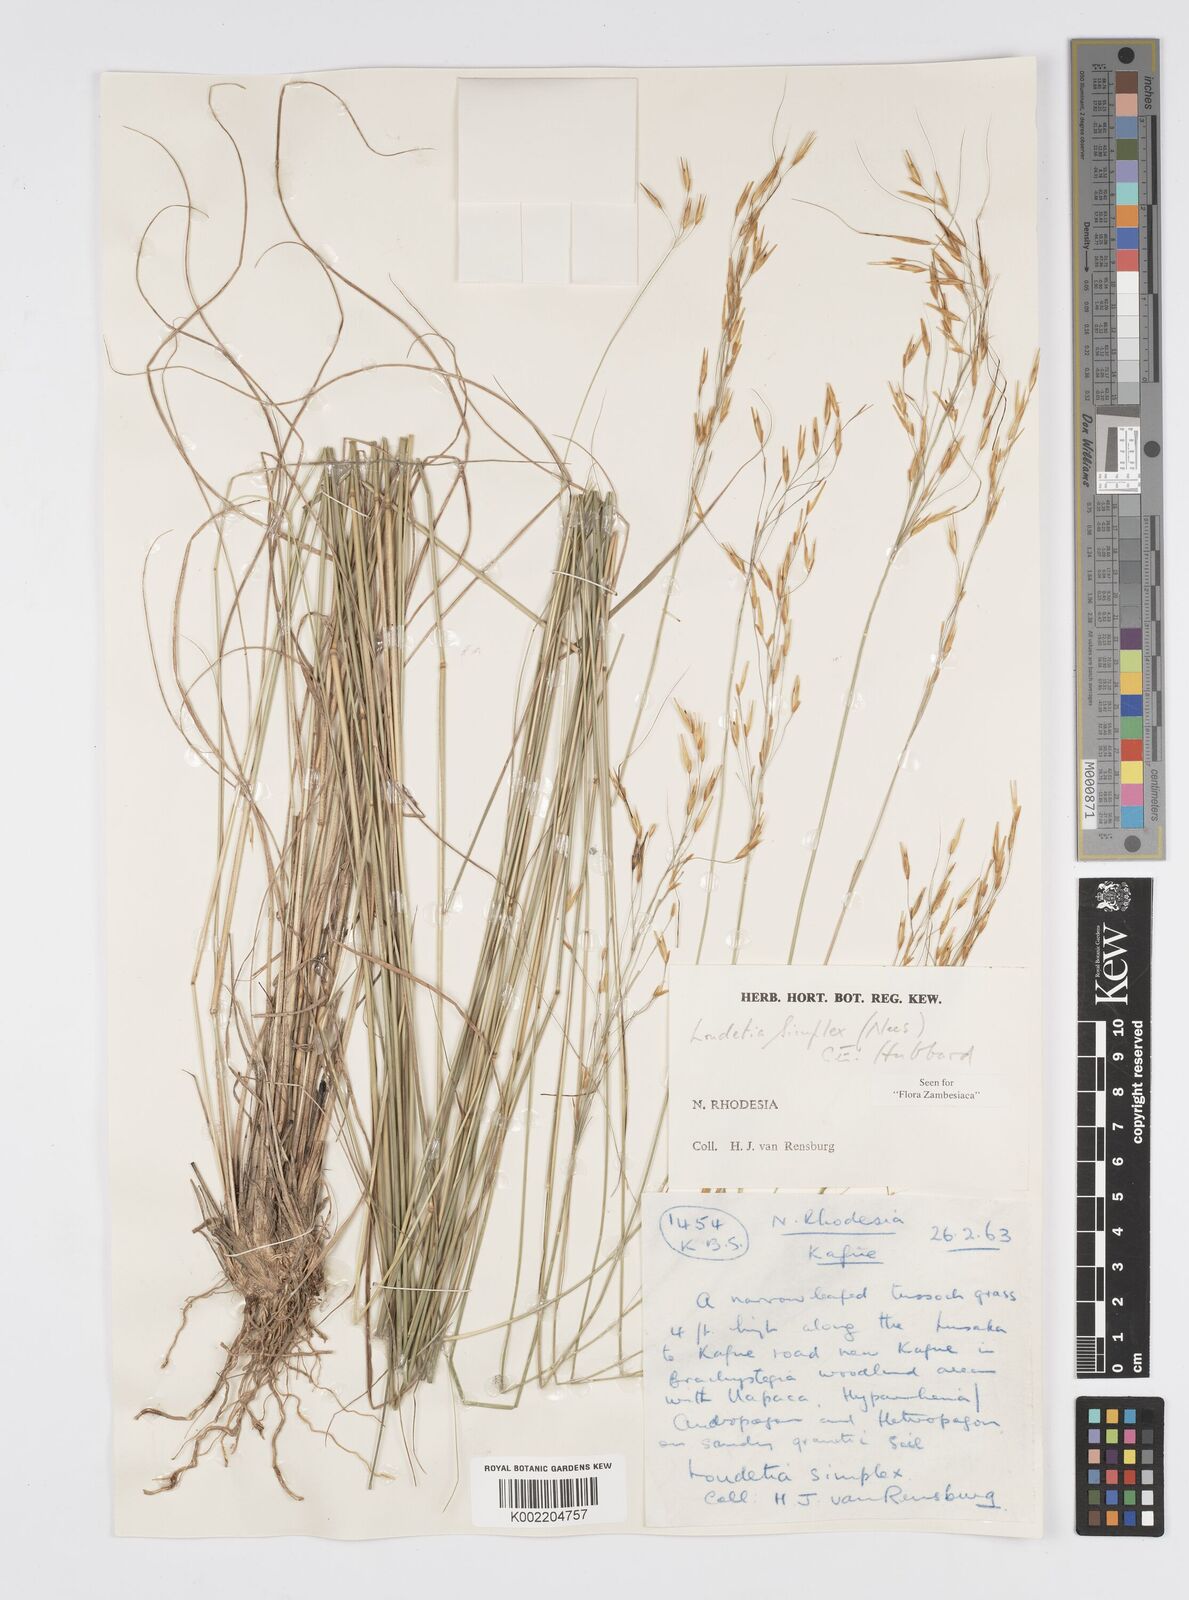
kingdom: Plantae
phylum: Tracheophyta
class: Liliopsida
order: Poales
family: Poaceae
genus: Loudetia
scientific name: Loudetia simplex
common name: Common russet grass
